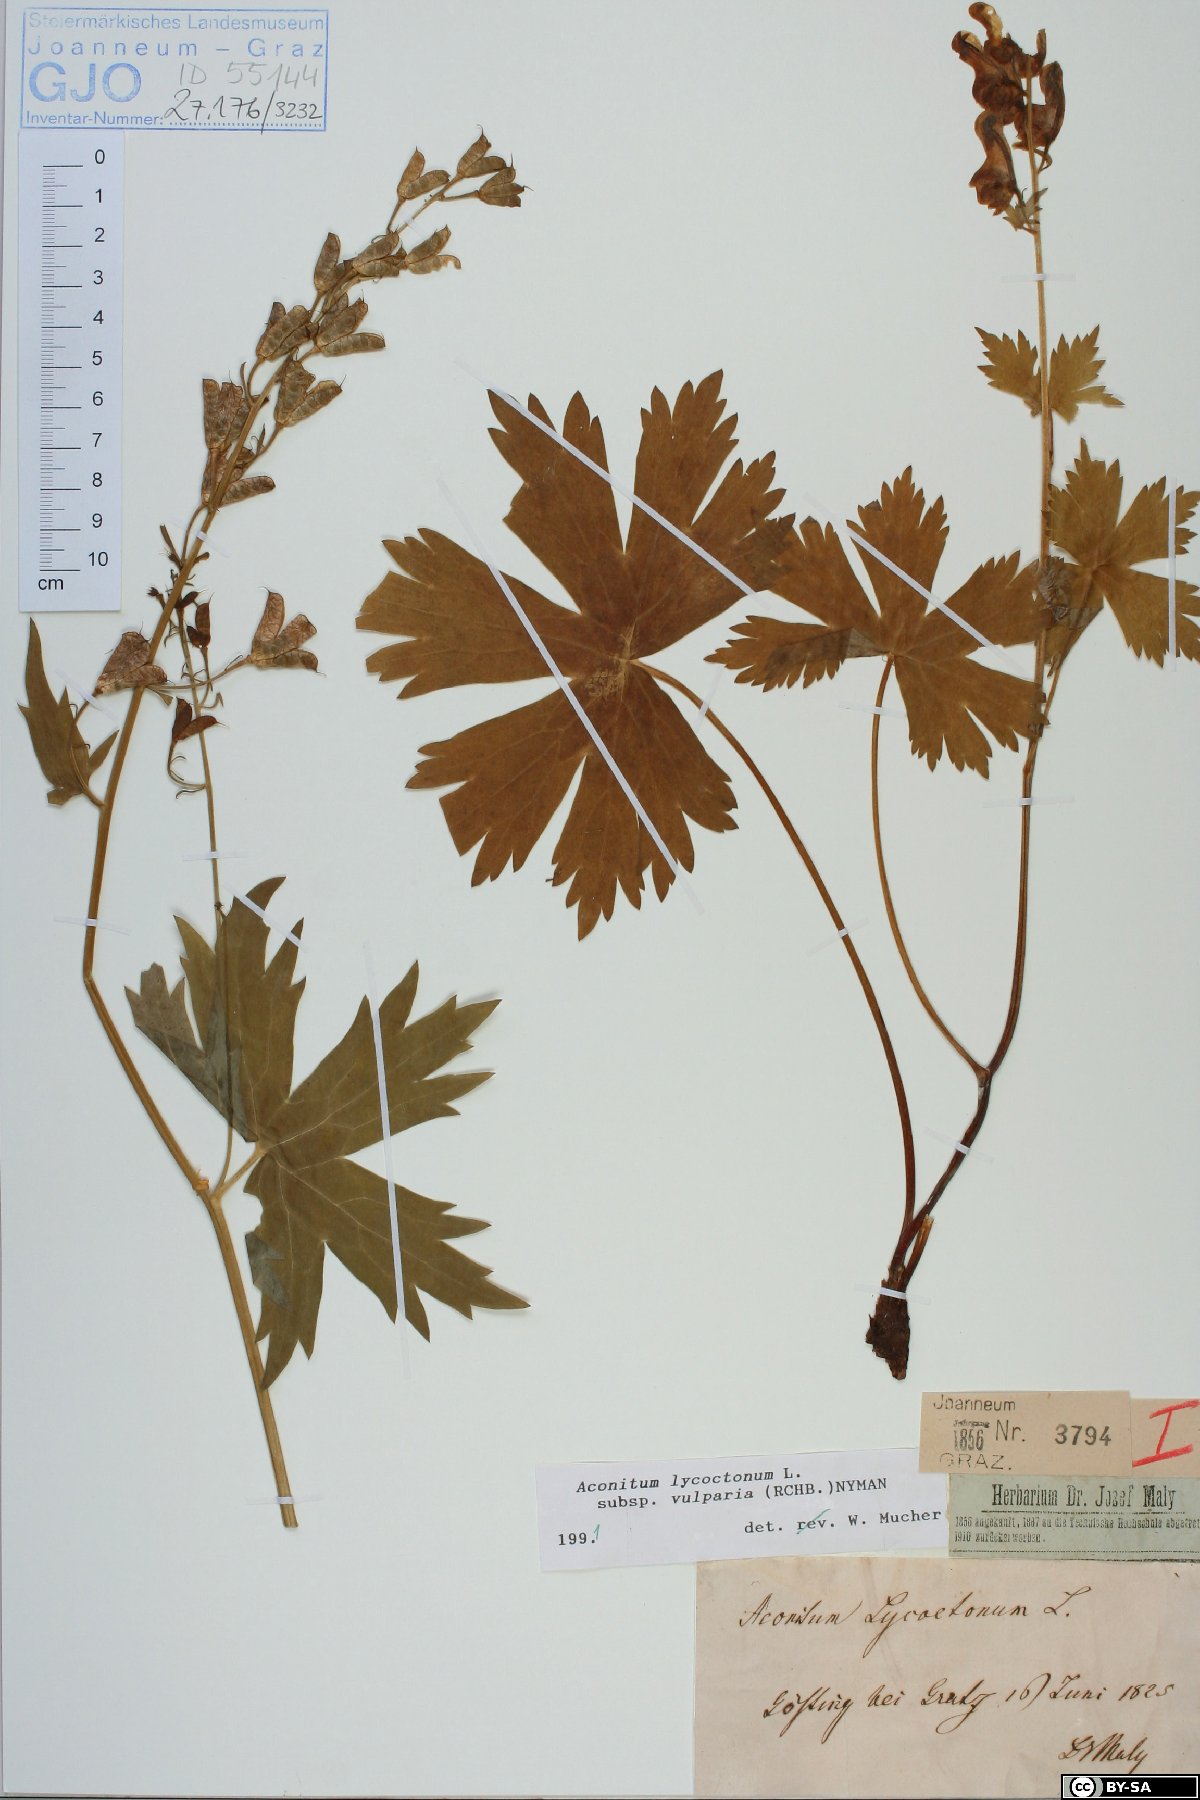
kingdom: Plantae
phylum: Tracheophyta
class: Magnoliopsida
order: Ranunculales
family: Ranunculaceae
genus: Aconitum
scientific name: Aconitum lycoctonum
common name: Wolf's-bane
